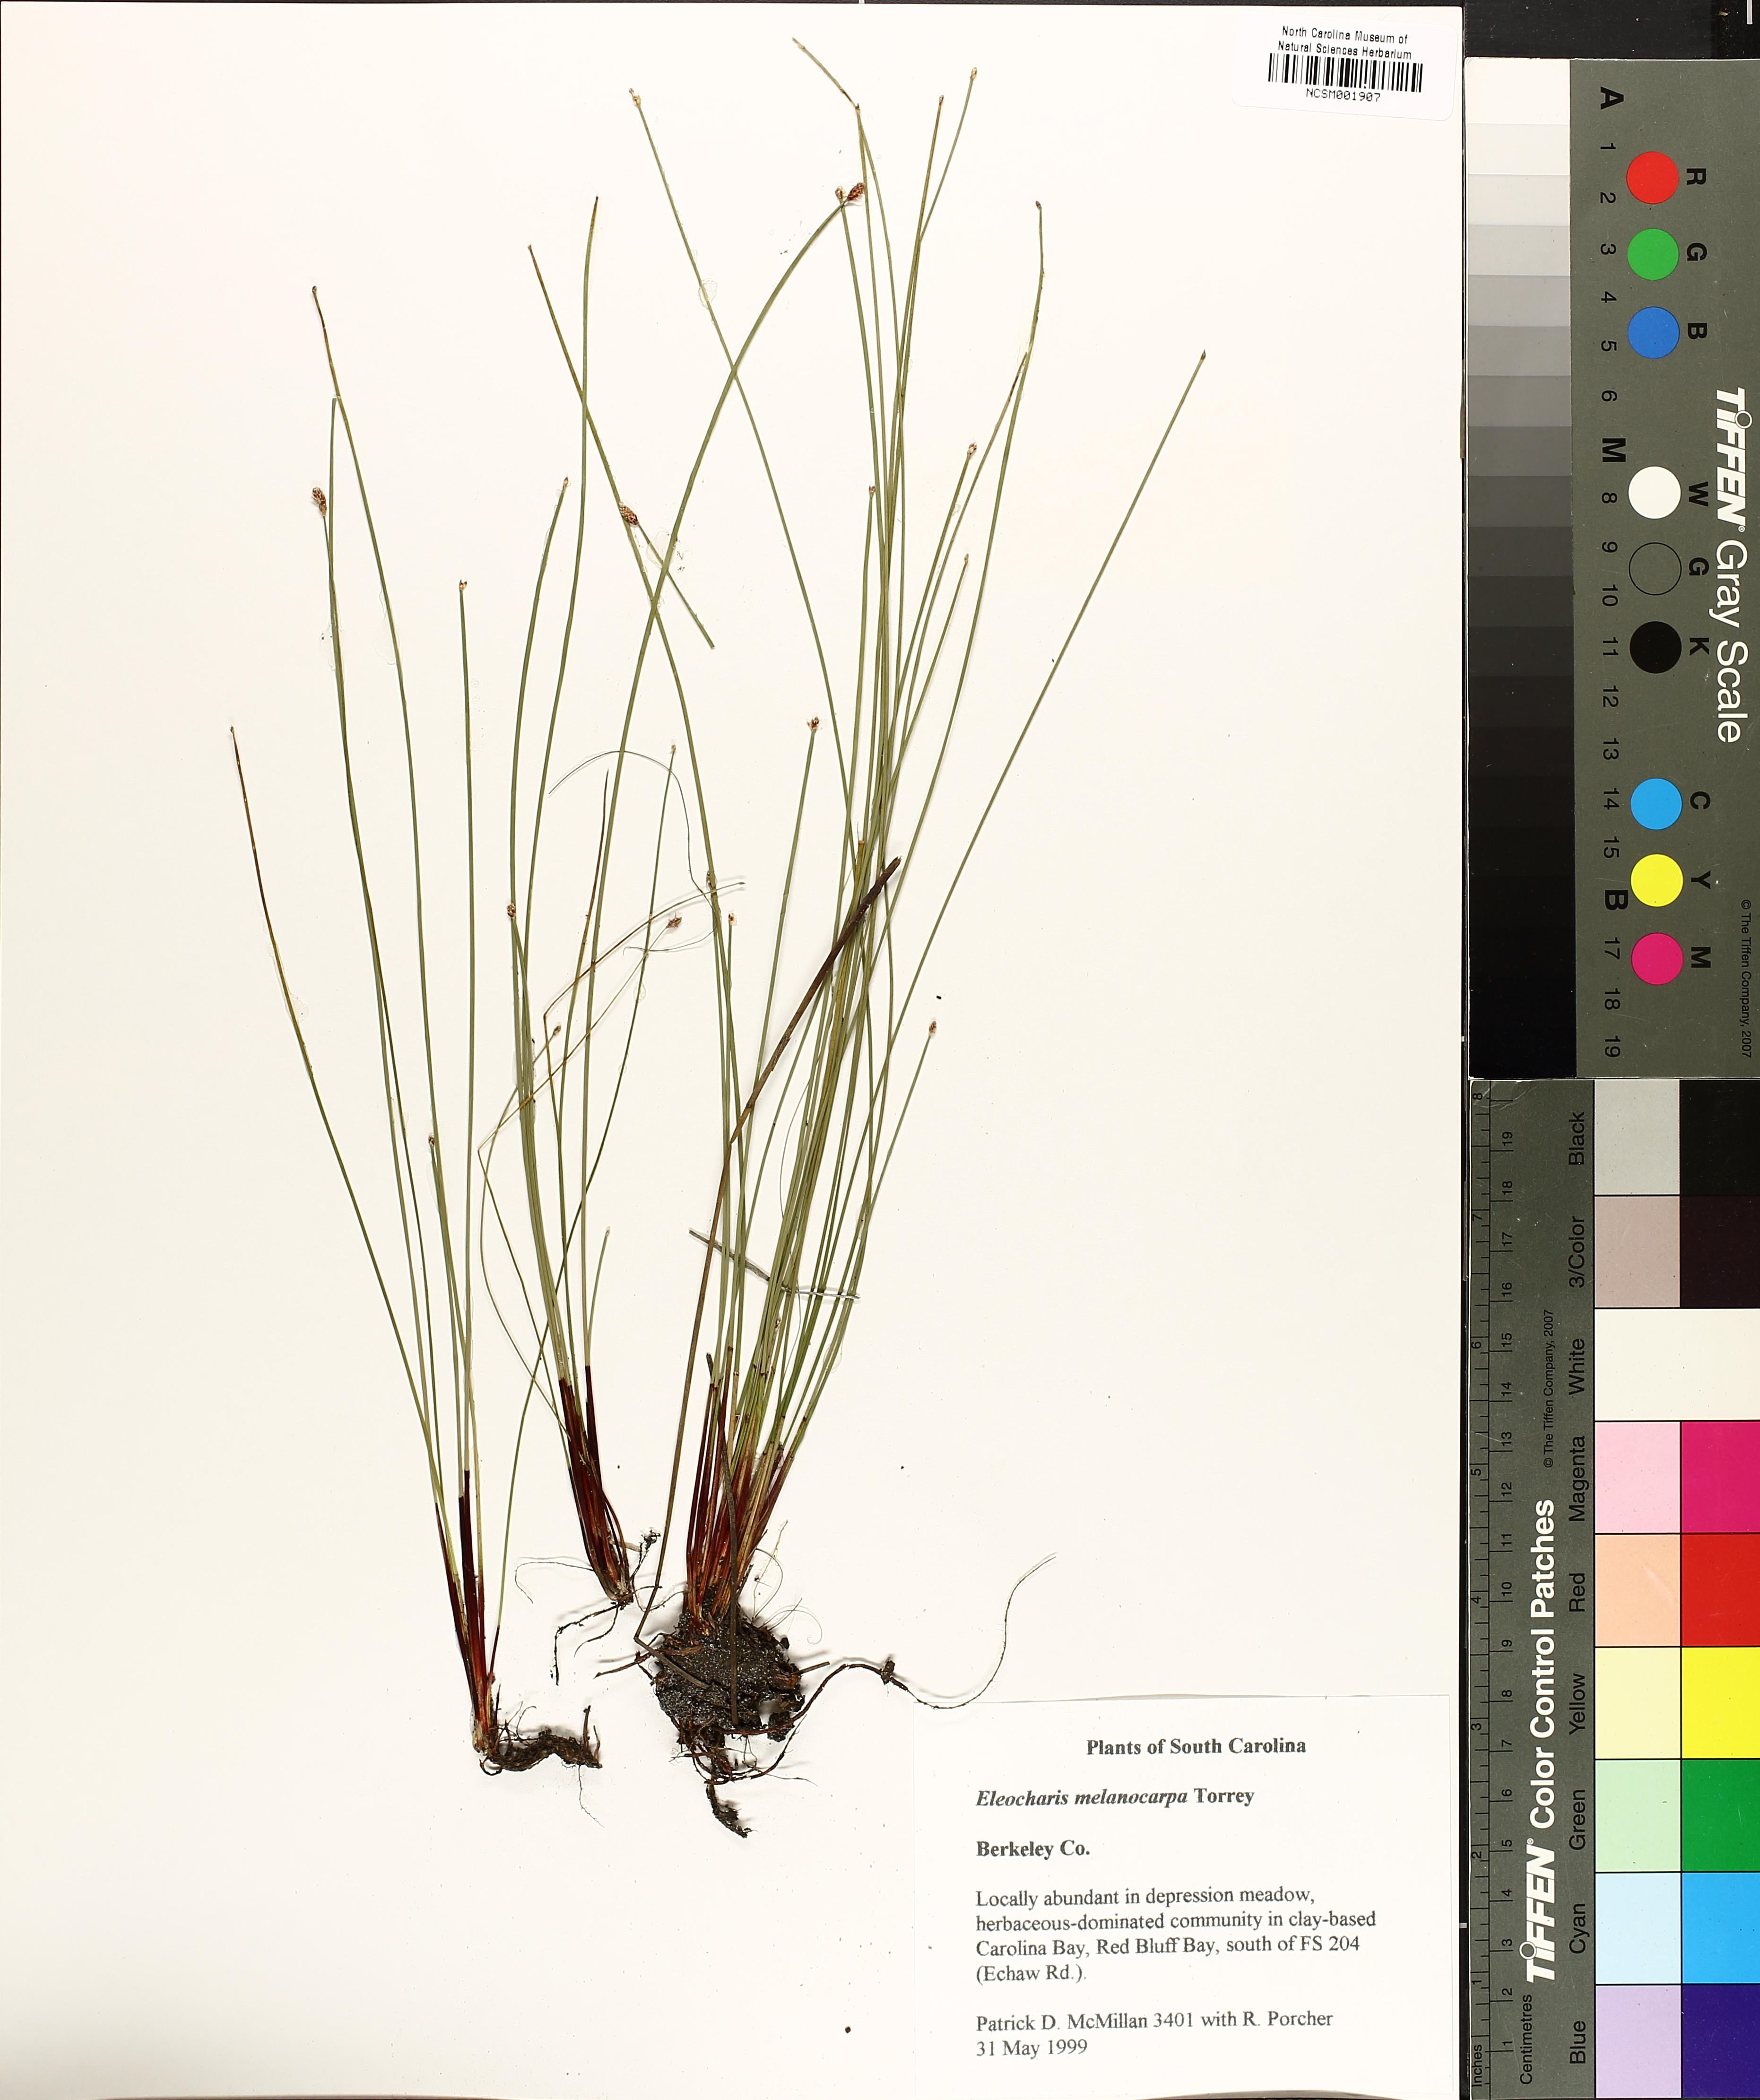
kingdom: Plantae
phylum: Tracheophyta
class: Liliopsida
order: Poales
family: Cyperaceae
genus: Eleocharis
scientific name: Eleocharis melanocarpa
